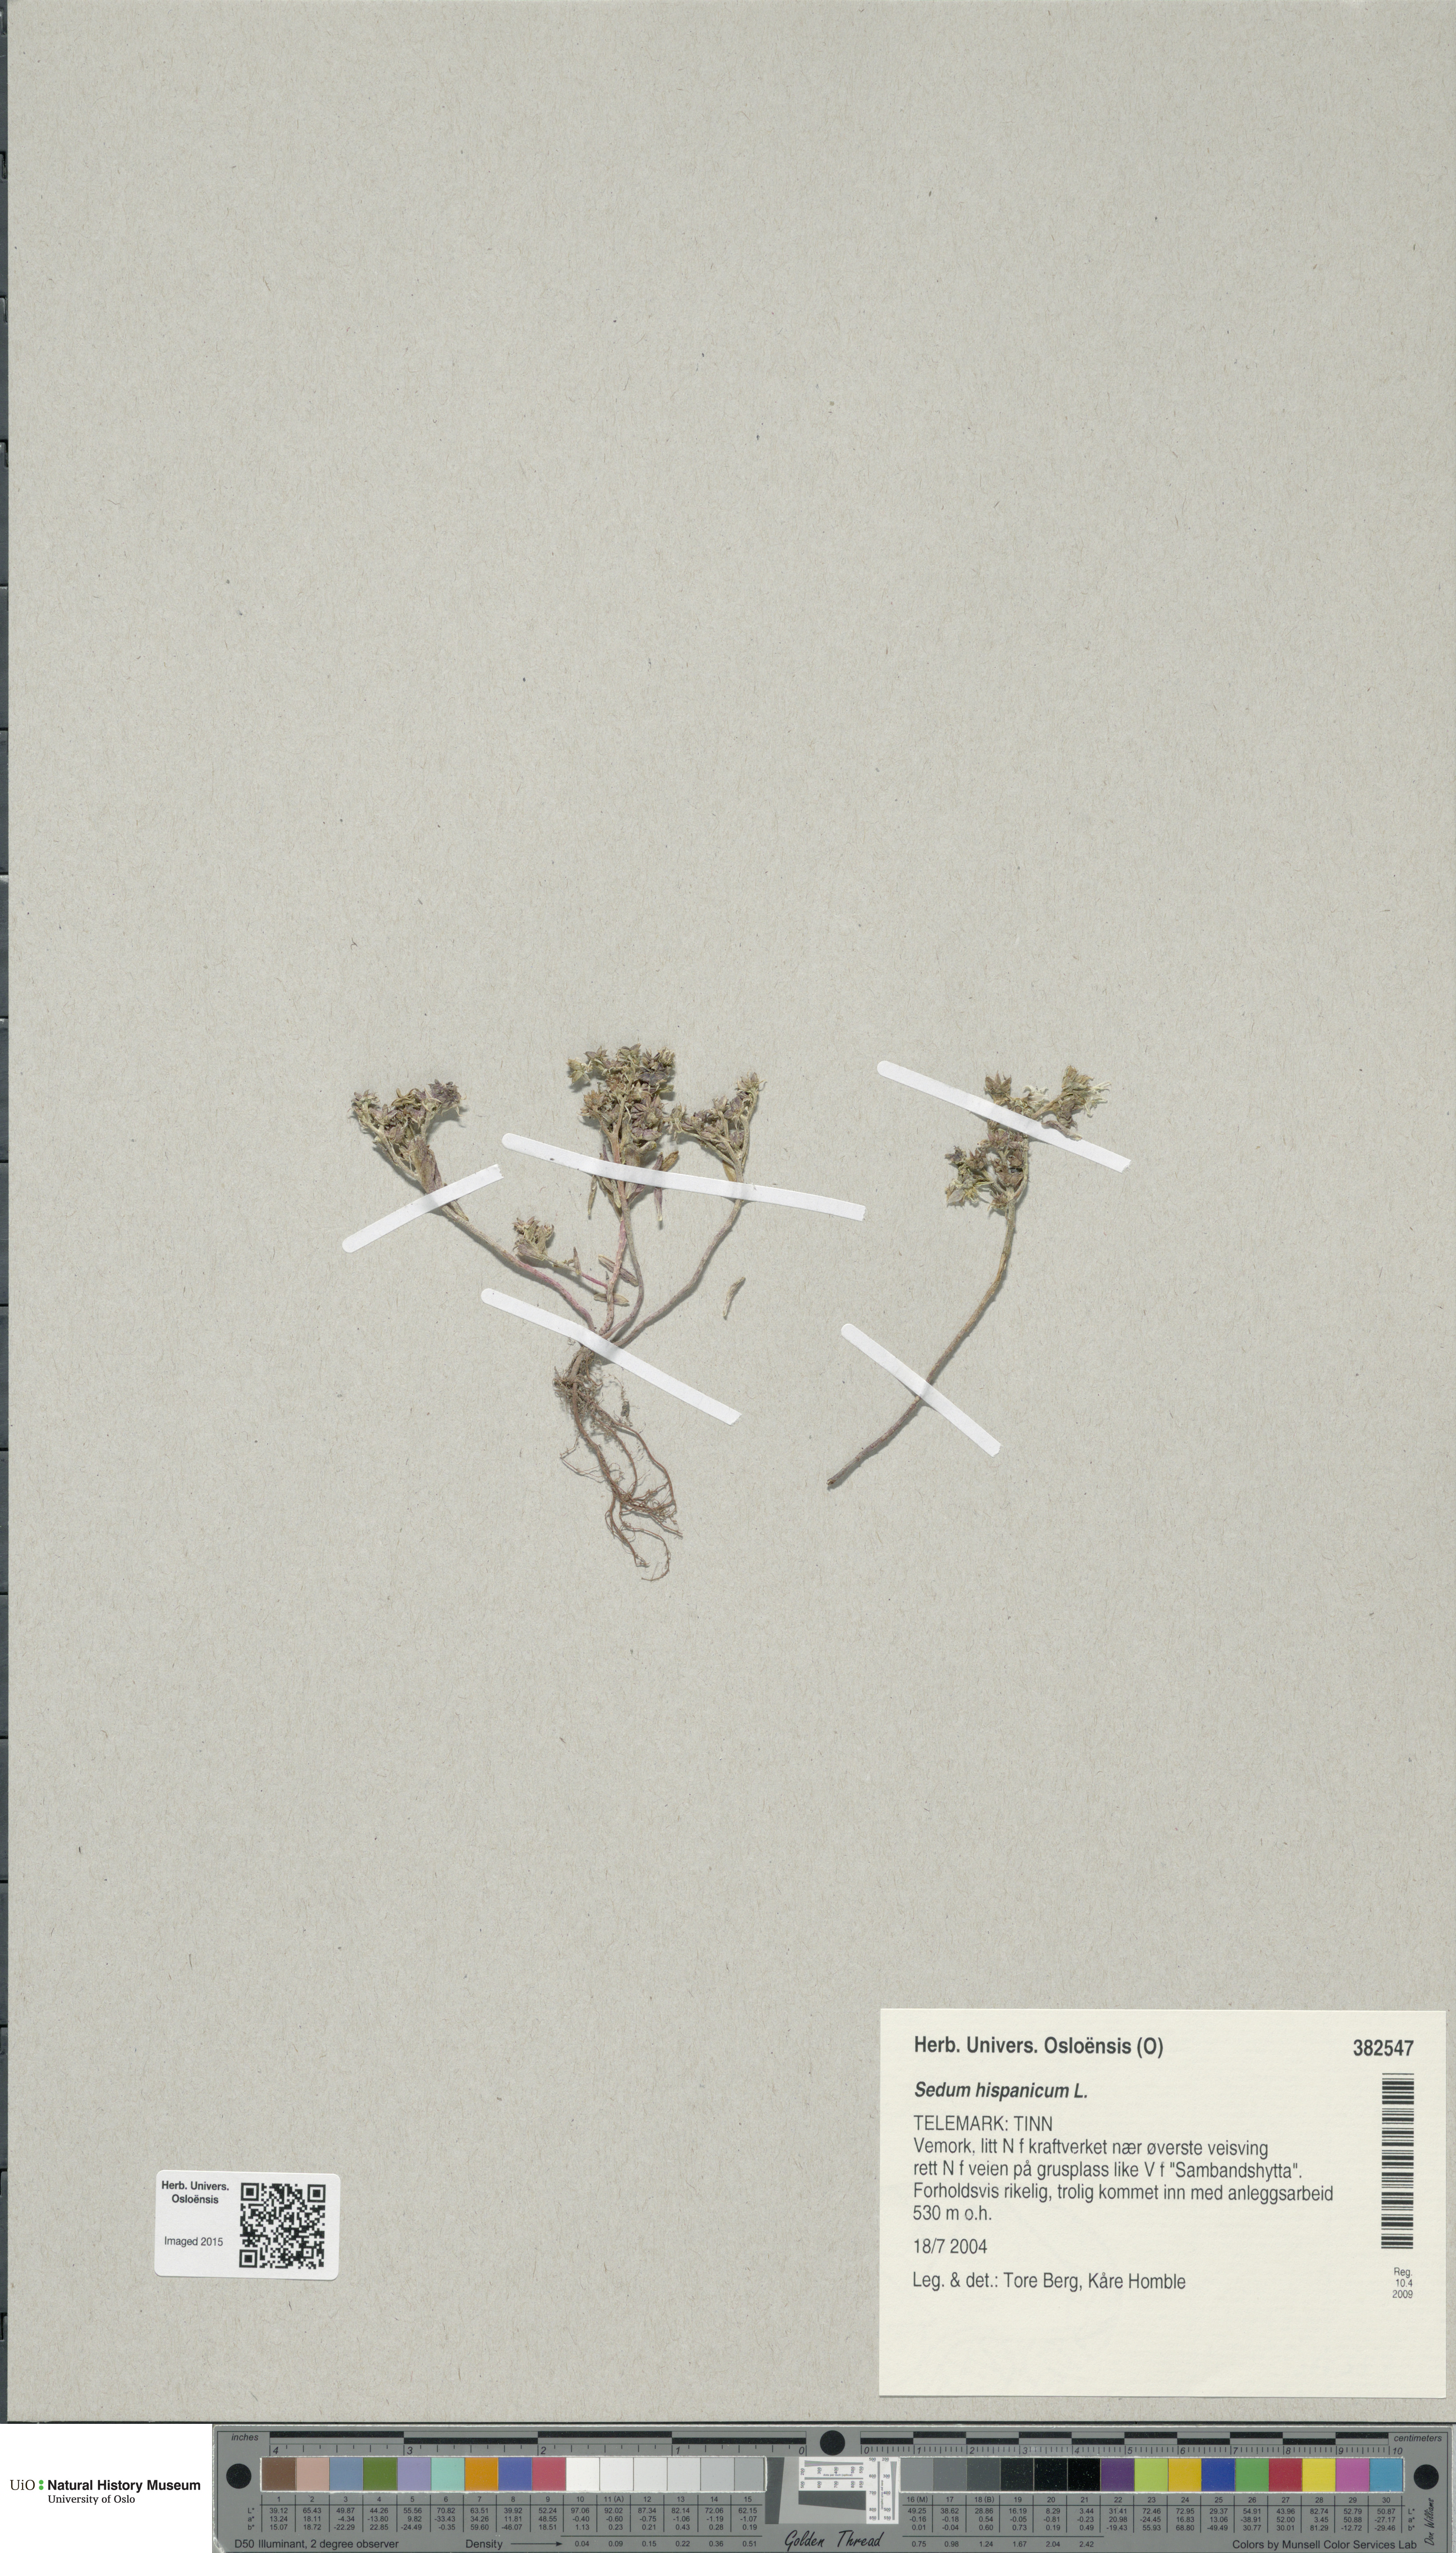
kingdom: Plantae
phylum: Tracheophyta
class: Magnoliopsida
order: Saxifragales
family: Crassulaceae
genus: Sedum
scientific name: Sedum hispanicum
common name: Spanish stonecrop
